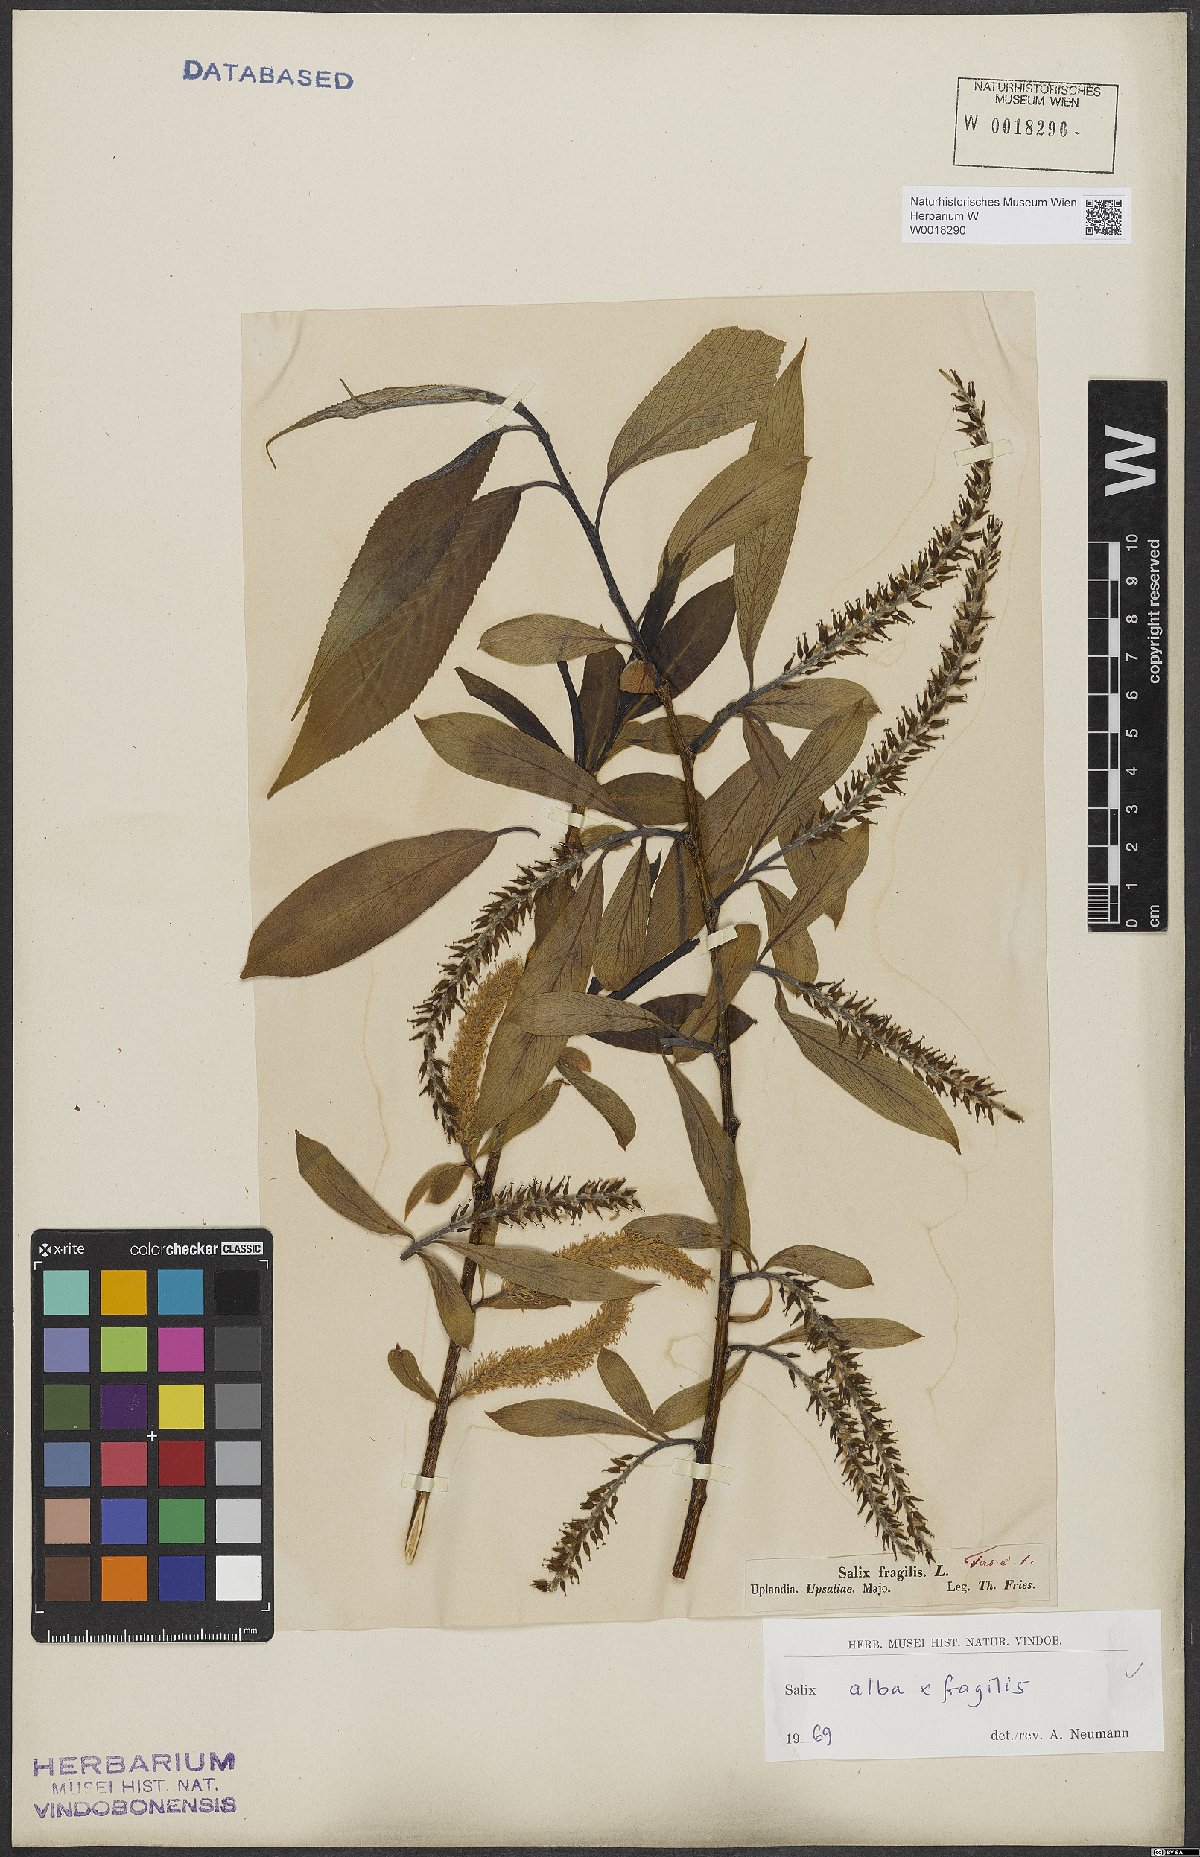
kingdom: Plantae
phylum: Tracheophyta
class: Magnoliopsida
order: Malpighiales
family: Salicaceae
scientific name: Salicaceae
